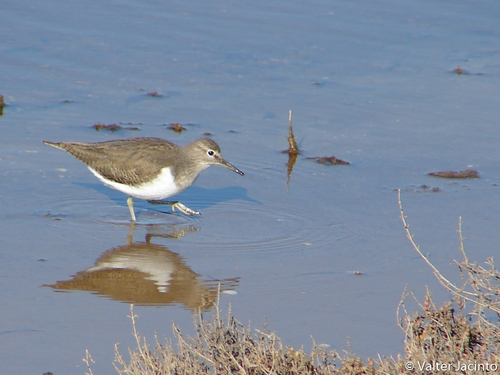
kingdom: Animalia
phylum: Chordata
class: Aves
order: Charadriiformes
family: Scolopacidae
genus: Actitis
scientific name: Actitis hypoleucos
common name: Common sandpiper
